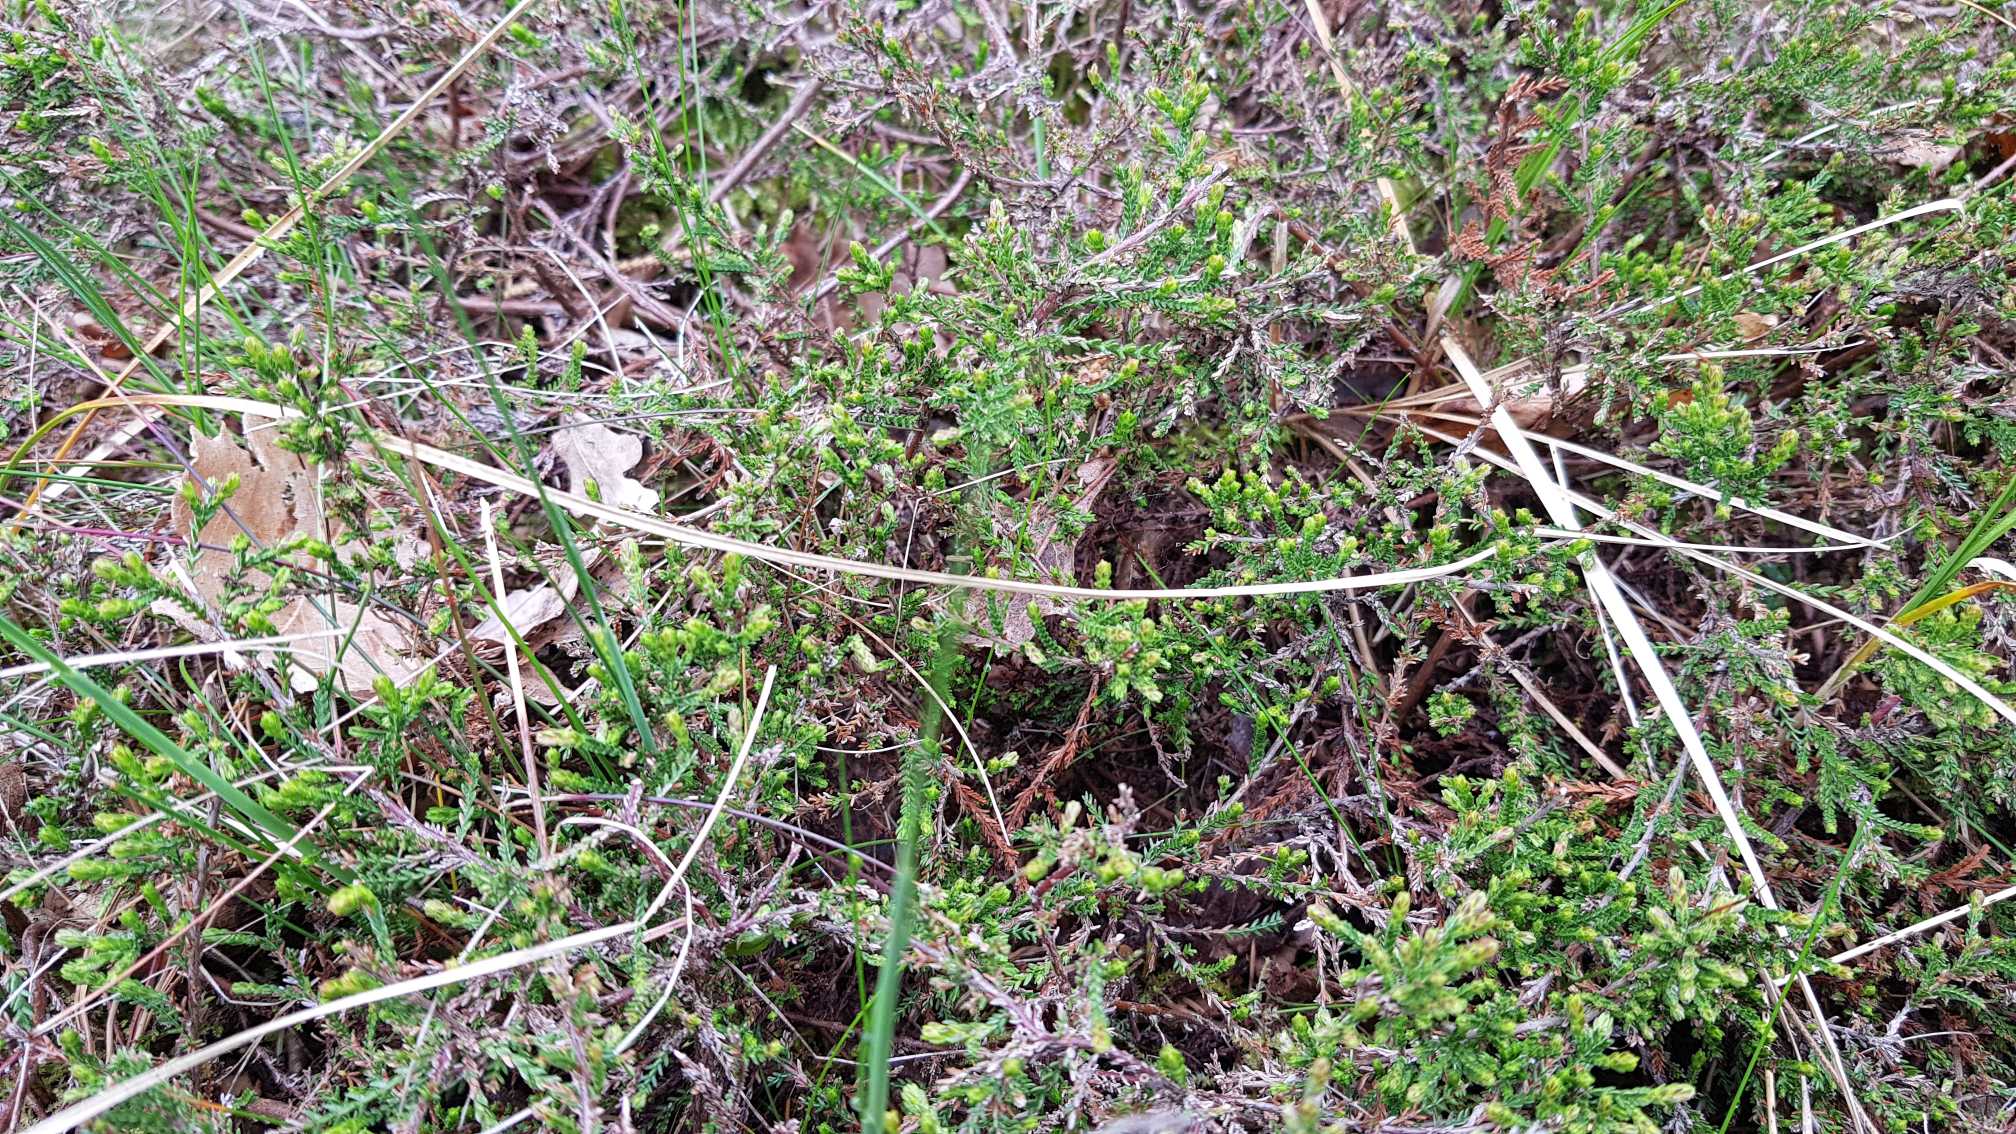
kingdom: Plantae
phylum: Tracheophyta
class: Magnoliopsida
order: Ericales
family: Ericaceae
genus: Calluna
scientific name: Calluna vulgaris
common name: Hedelyng
